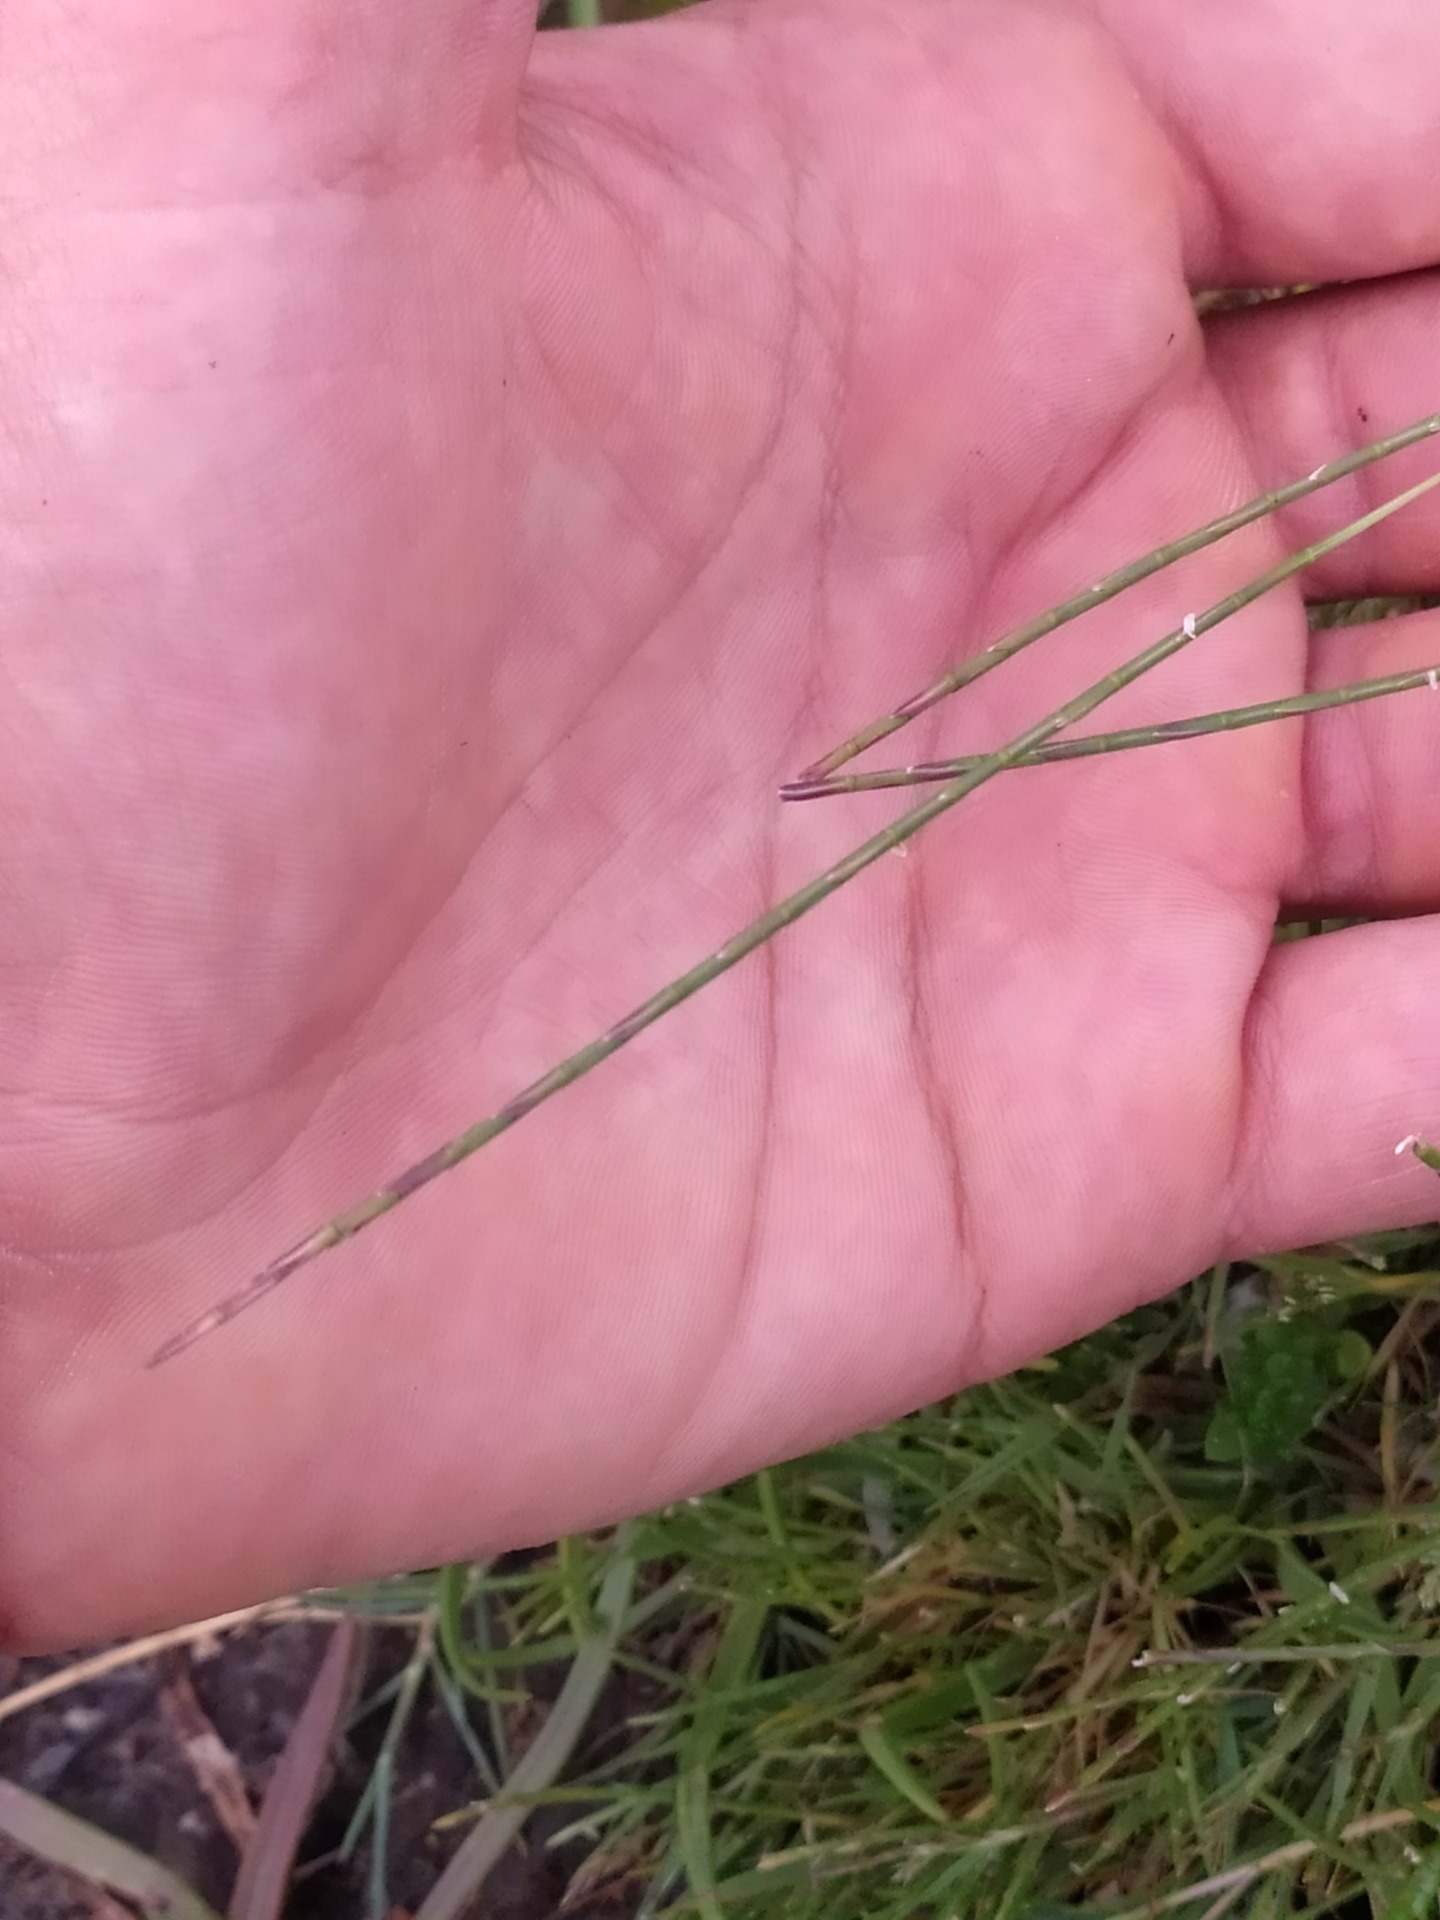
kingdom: Plantae
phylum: Tracheophyta
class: Liliopsida
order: Poales
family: Poaceae
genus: Parapholis
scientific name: Parapholis strigosa
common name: Spidshale
